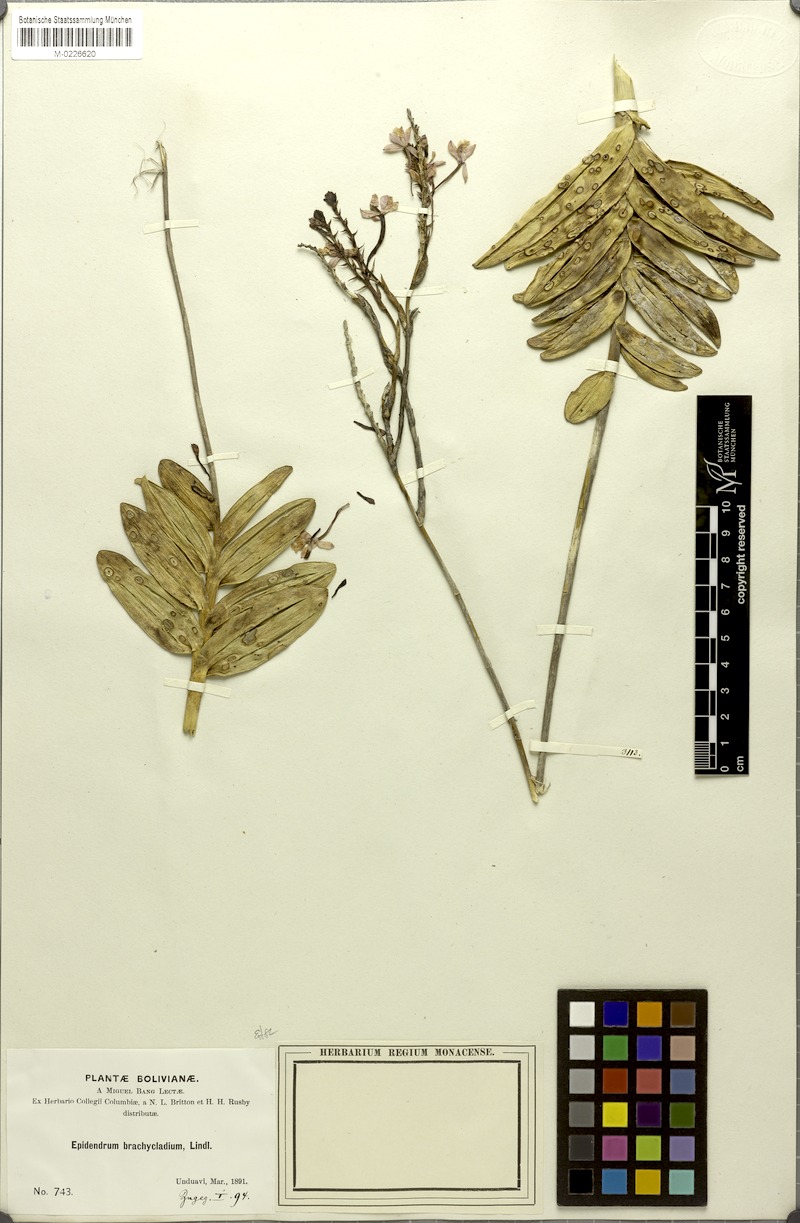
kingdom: Plantae
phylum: Tracheophyta
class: Liliopsida
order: Asparagales
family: Orchidaceae
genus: Epidendrum
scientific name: Epidendrum blepharistes
